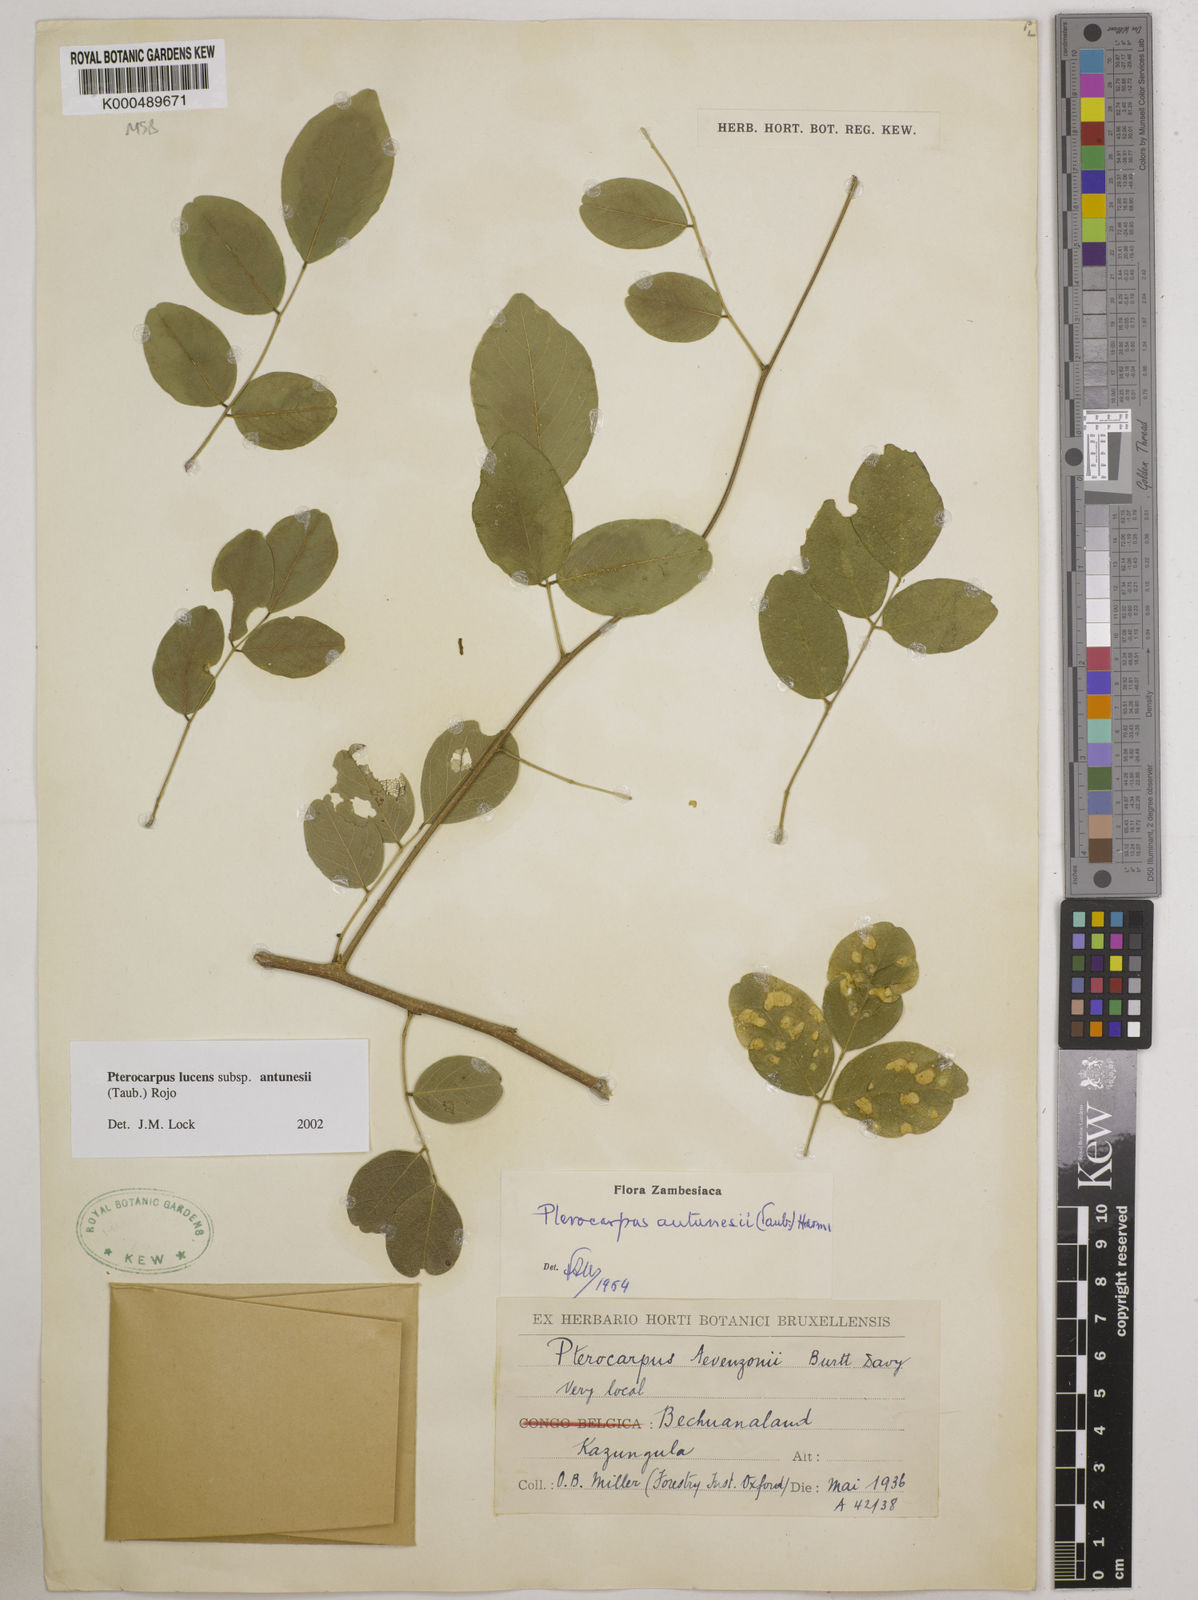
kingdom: Plantae
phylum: Tracheophyta
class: Magnoliopsida
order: Fabales
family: Fabaceae
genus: Pterocarpus
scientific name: Pterocarpus lucens
